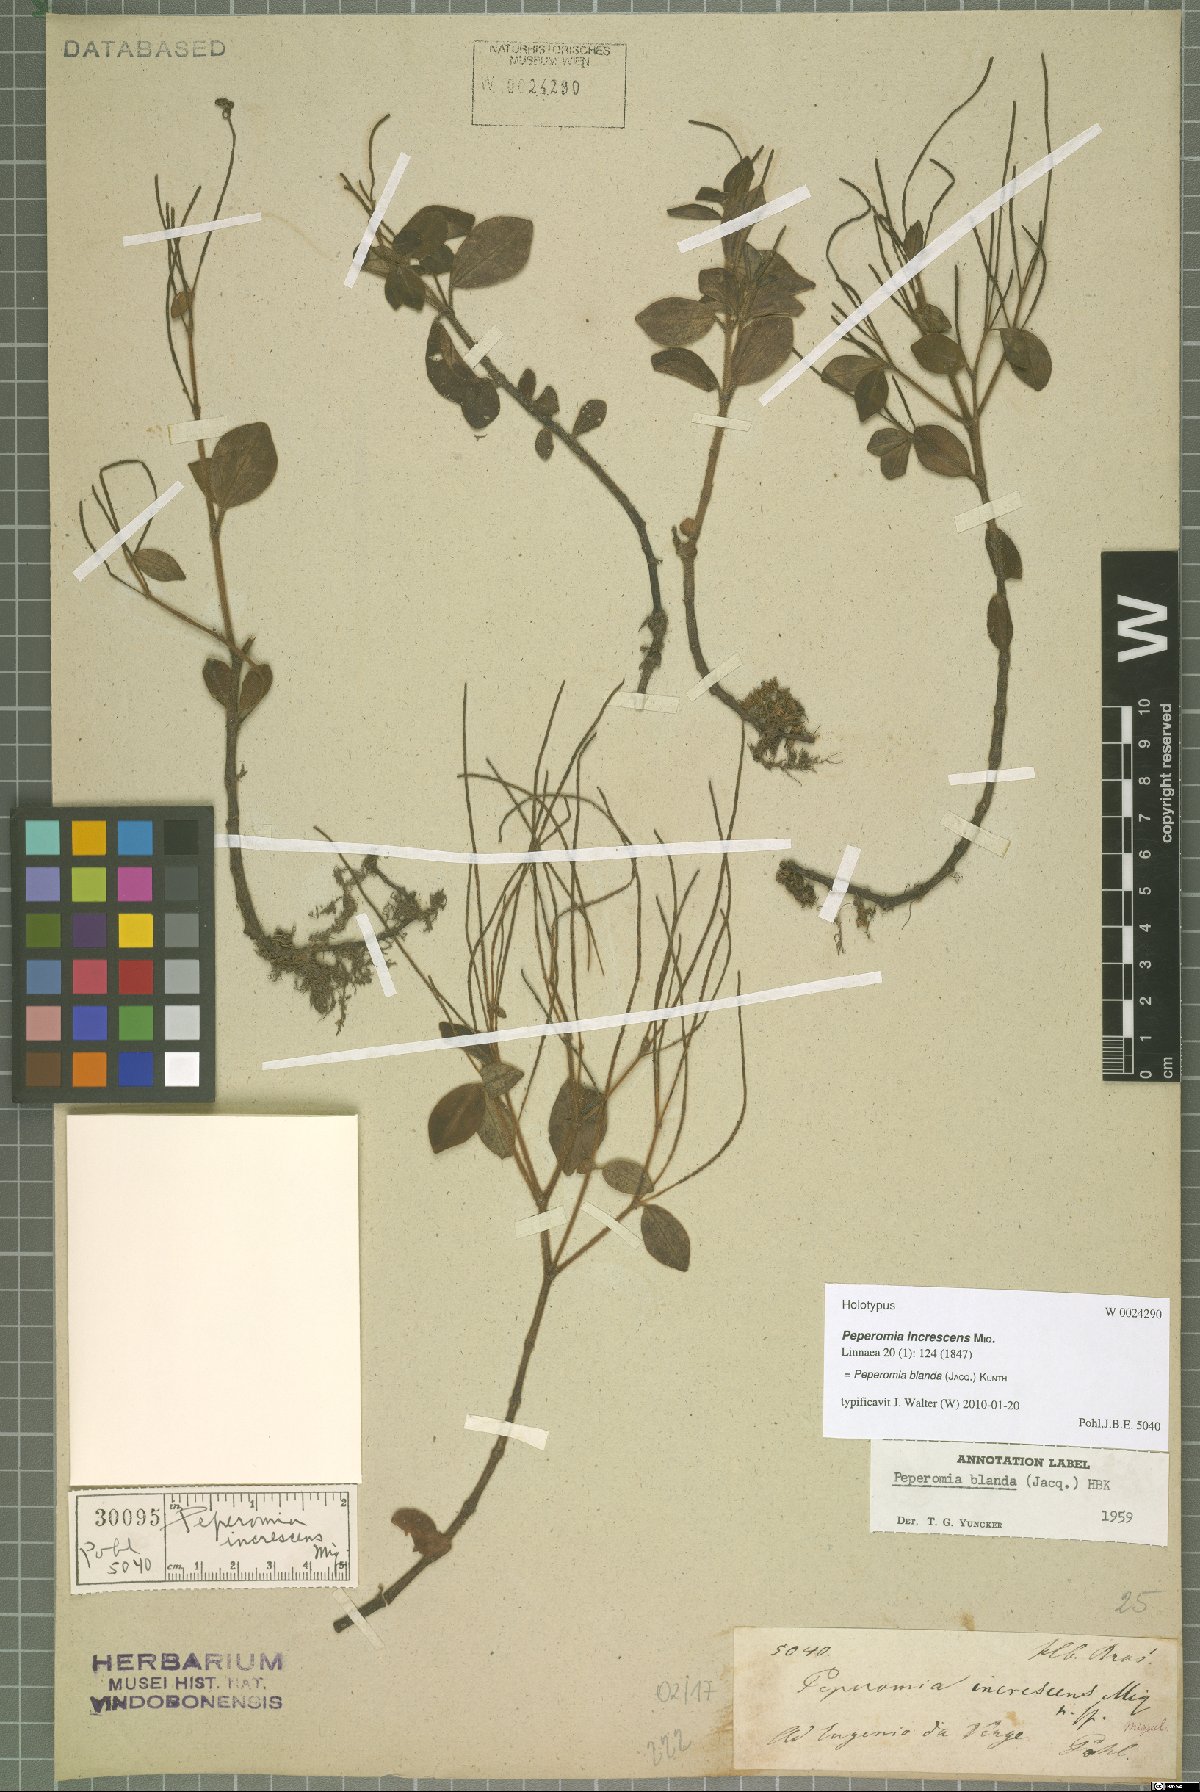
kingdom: Plantae
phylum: Tracheophyta
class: Magnoliopsida
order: Piperales
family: Piperaceae
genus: Peperomia
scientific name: Peperomia blanda
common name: Arid-land peperomia
